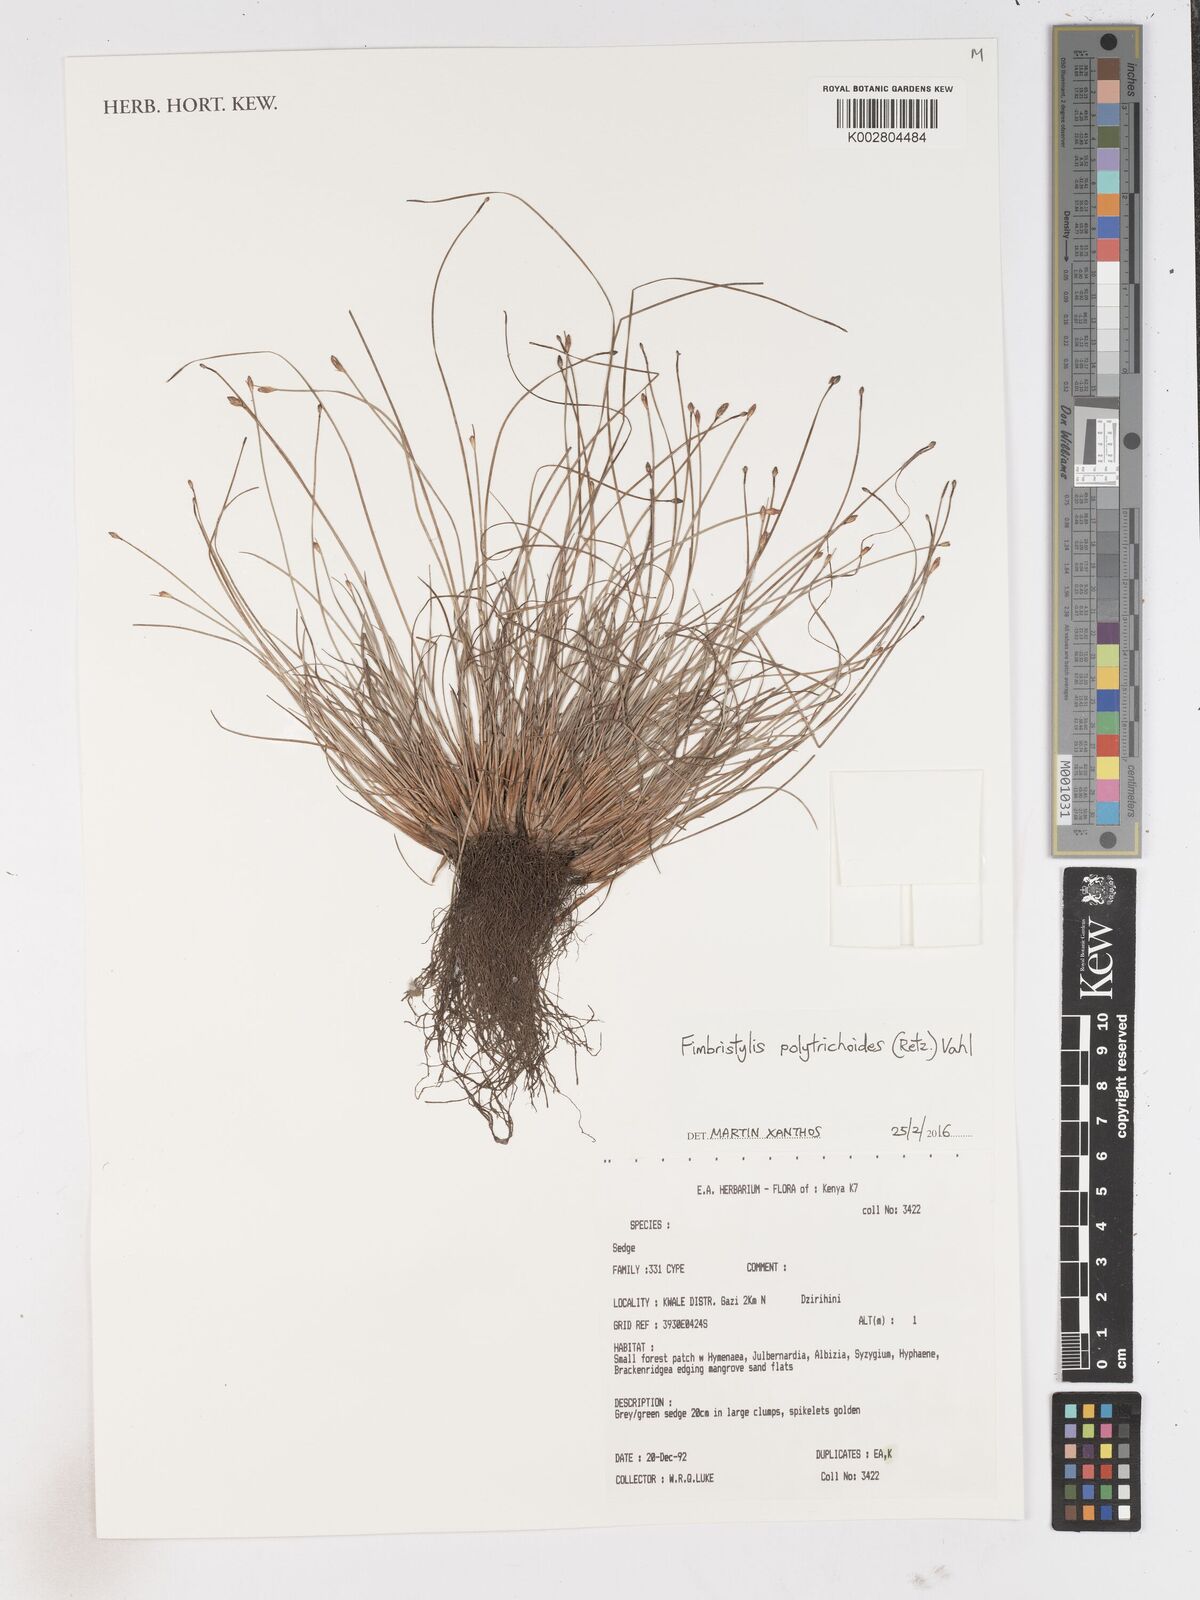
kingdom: Plantae
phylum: Tracheophyta
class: Liliopsida
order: Poales
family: Cyperaceae
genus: Fimbristylis
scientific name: Fimbristylis polytrichoides
